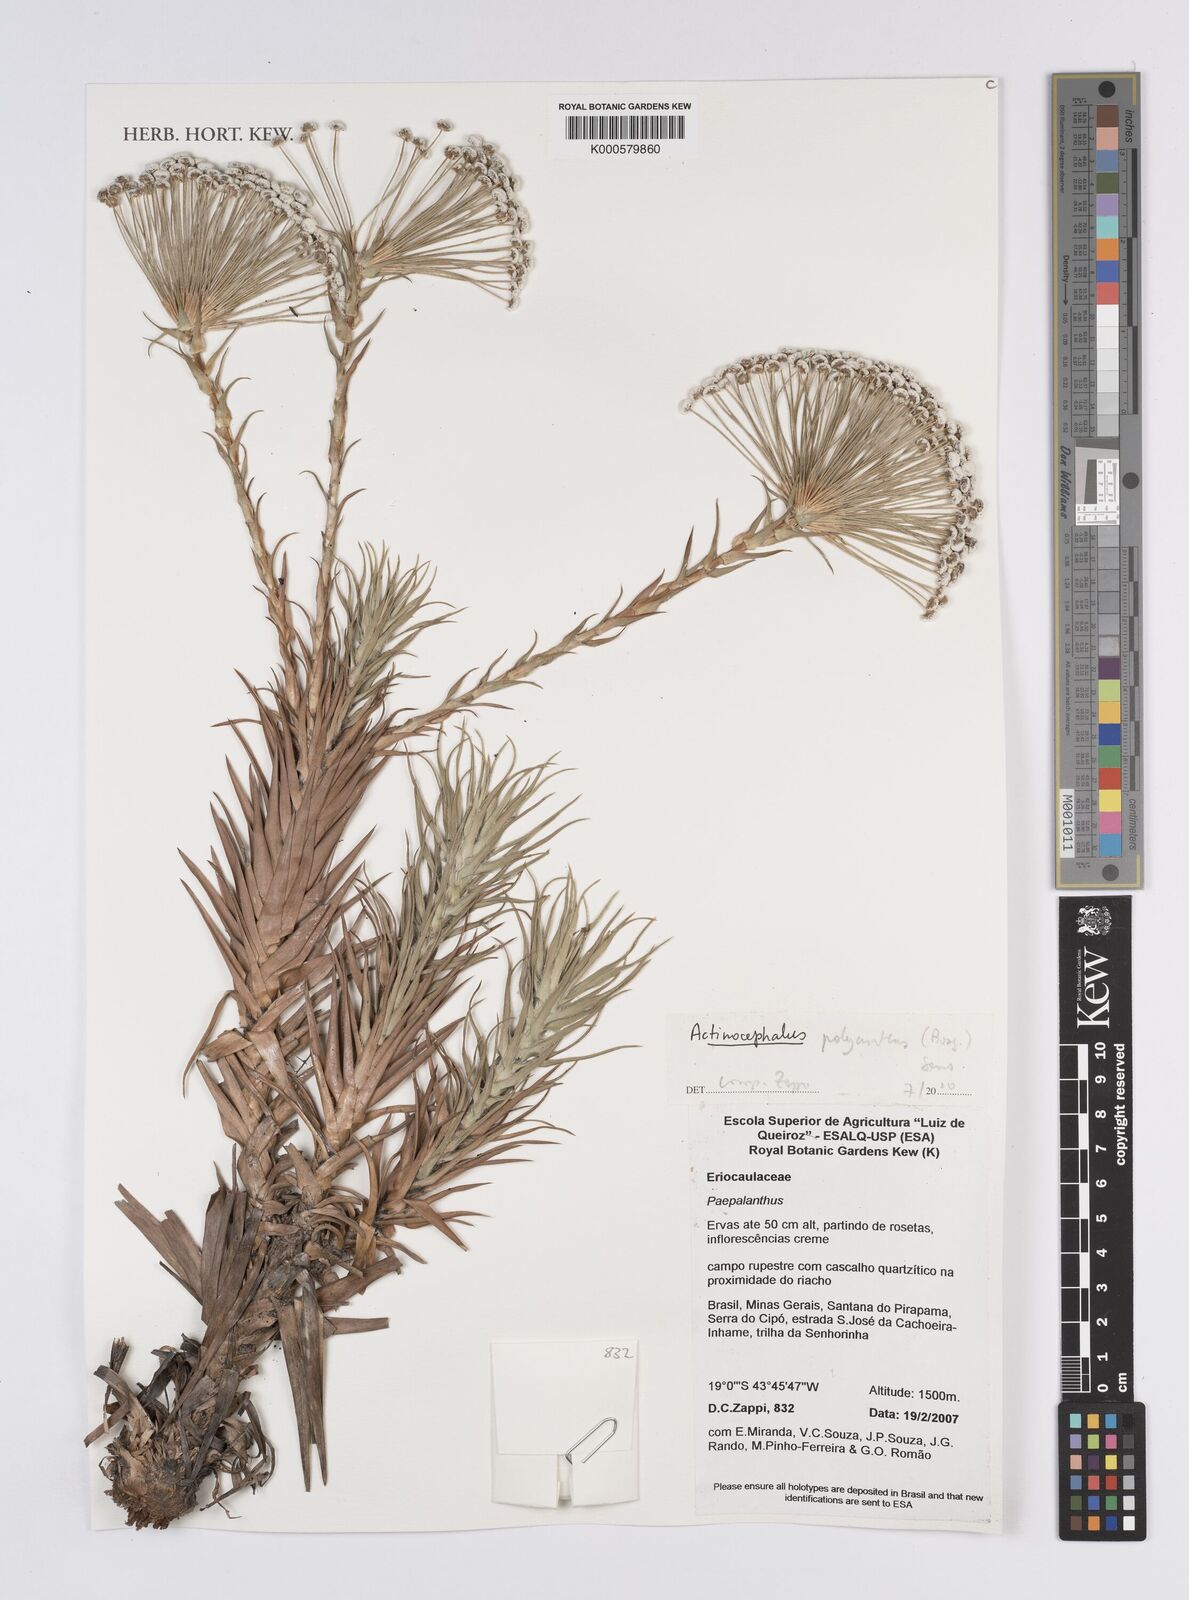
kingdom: Plantae
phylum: Tracheophyta
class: Liliopsida
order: Poales
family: Eriocaulaceae
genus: Paepalanthus
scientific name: Paepalanthus polyanthus
